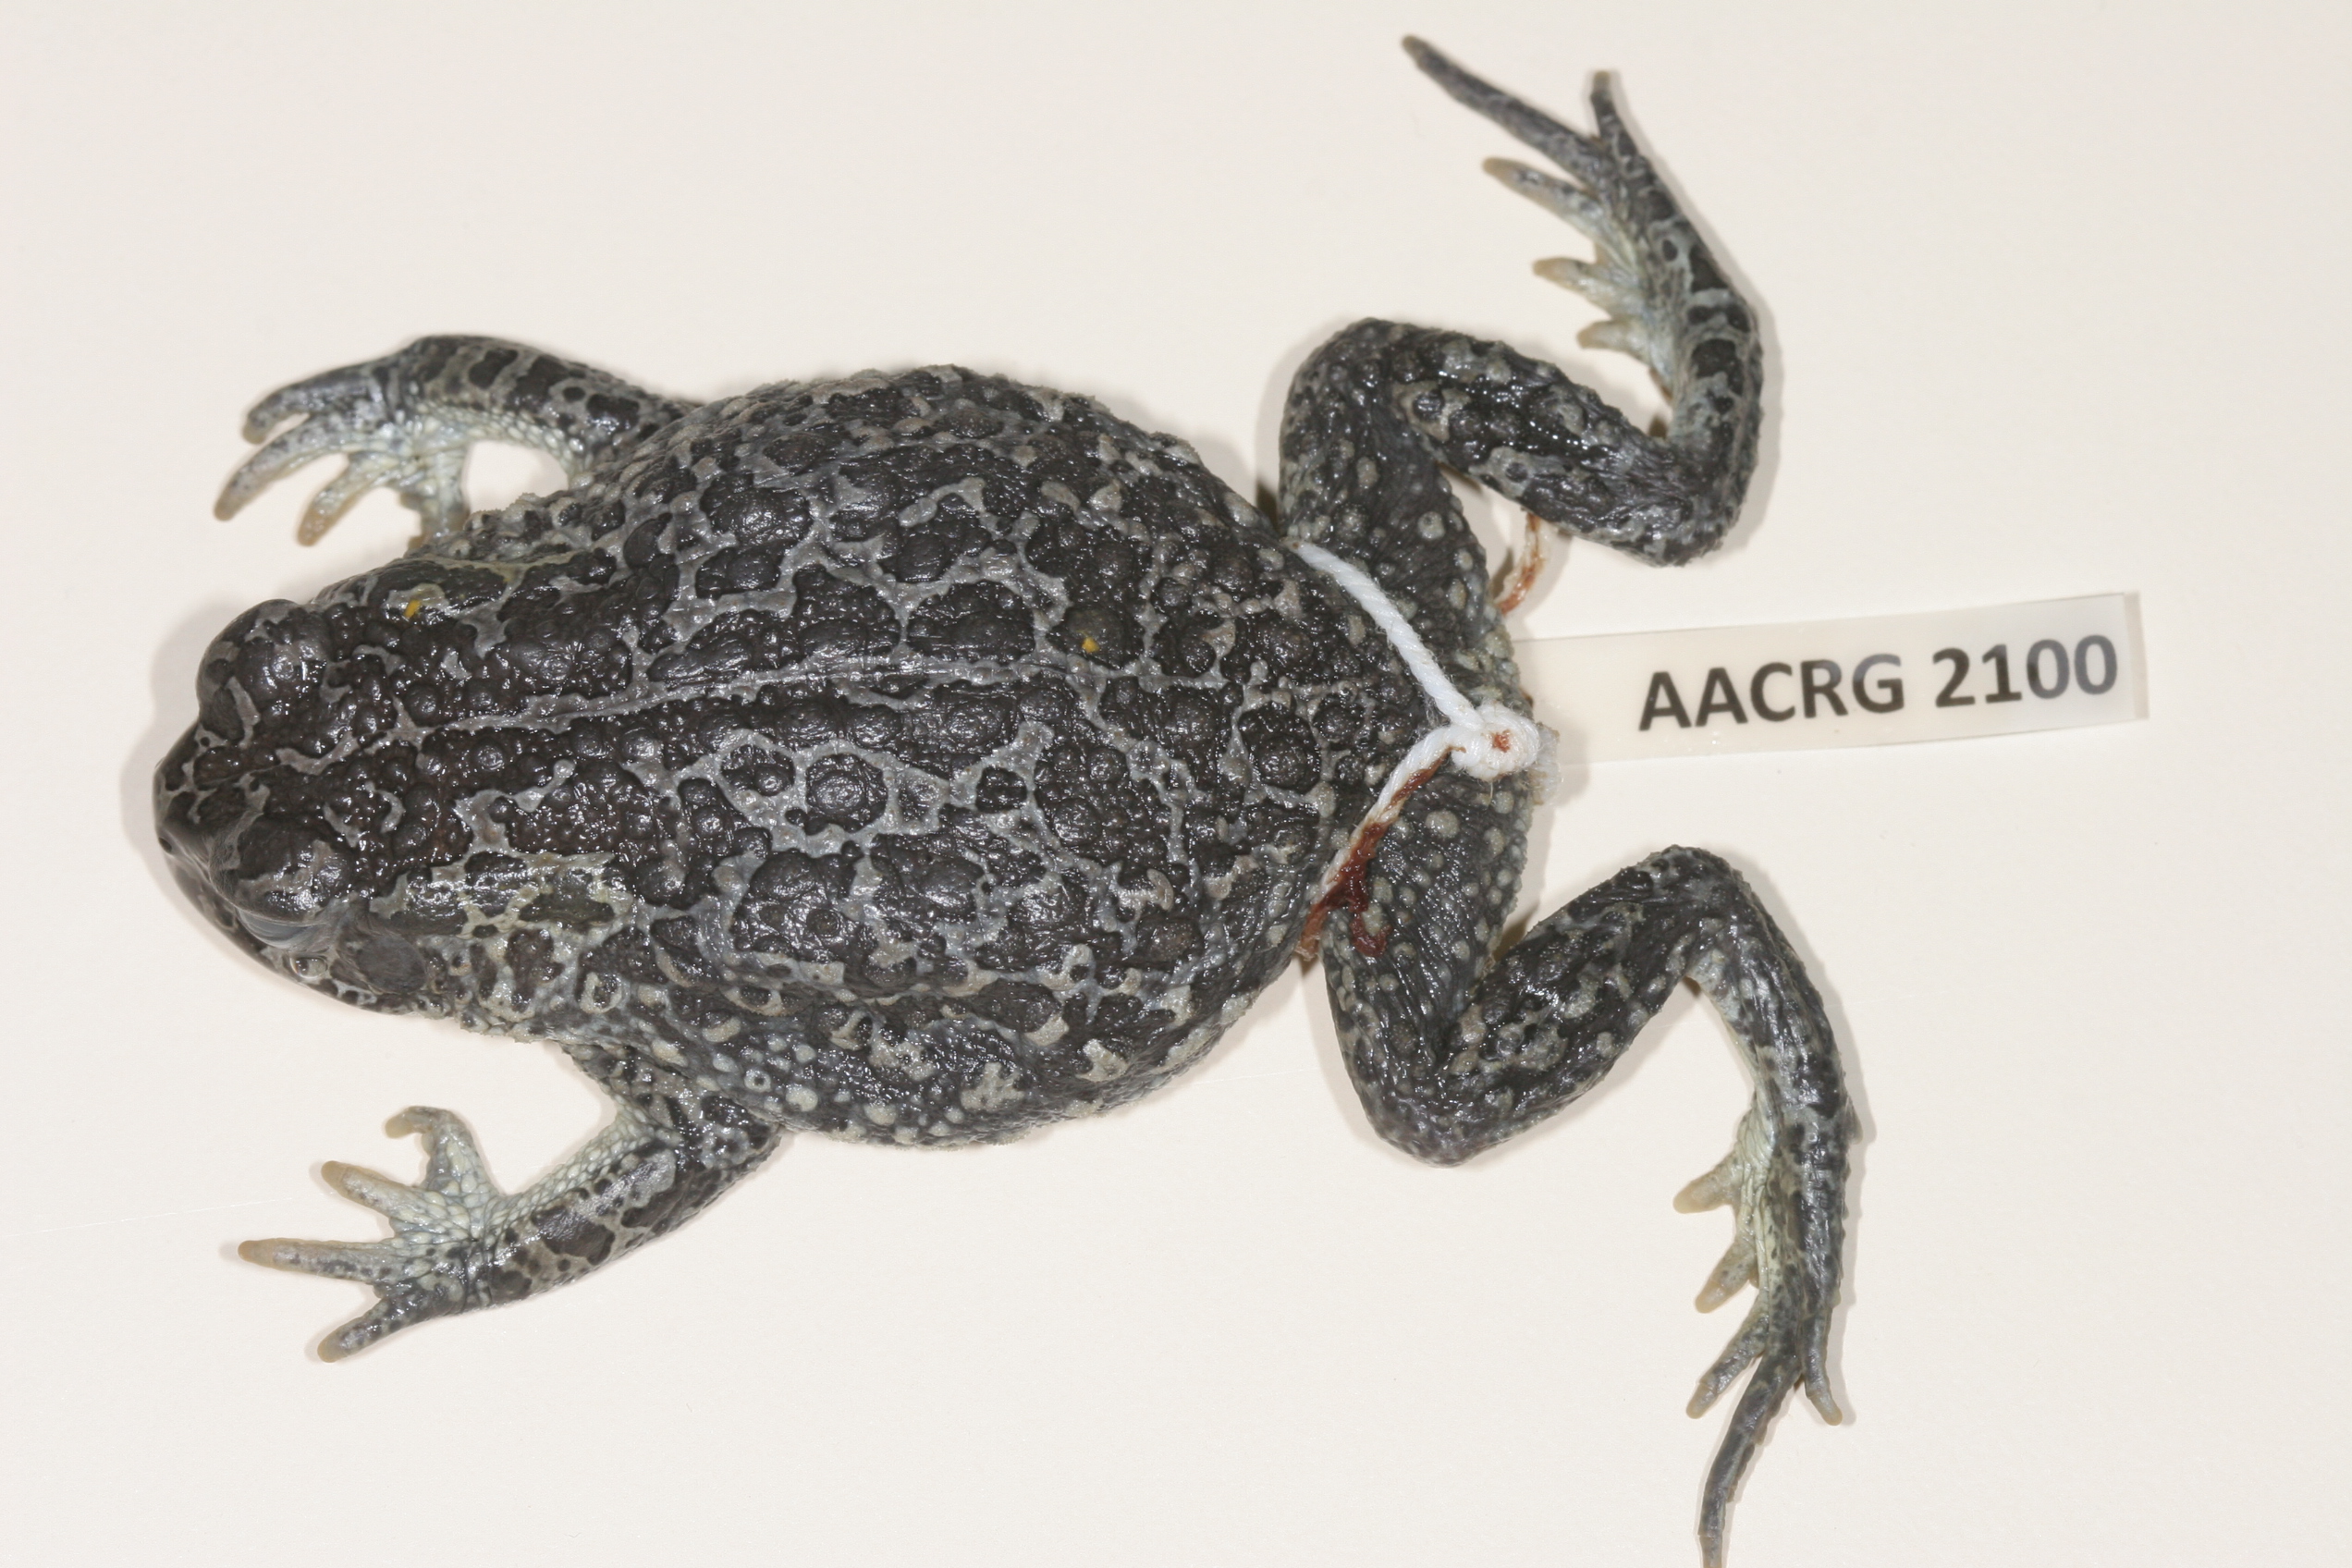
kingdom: Animalia
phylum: Chordata
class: Amphibia
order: Anura
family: Bufonidae
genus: Vandijkophrynus
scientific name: Vandijkophrynus gariepensis
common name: Gariep toad
